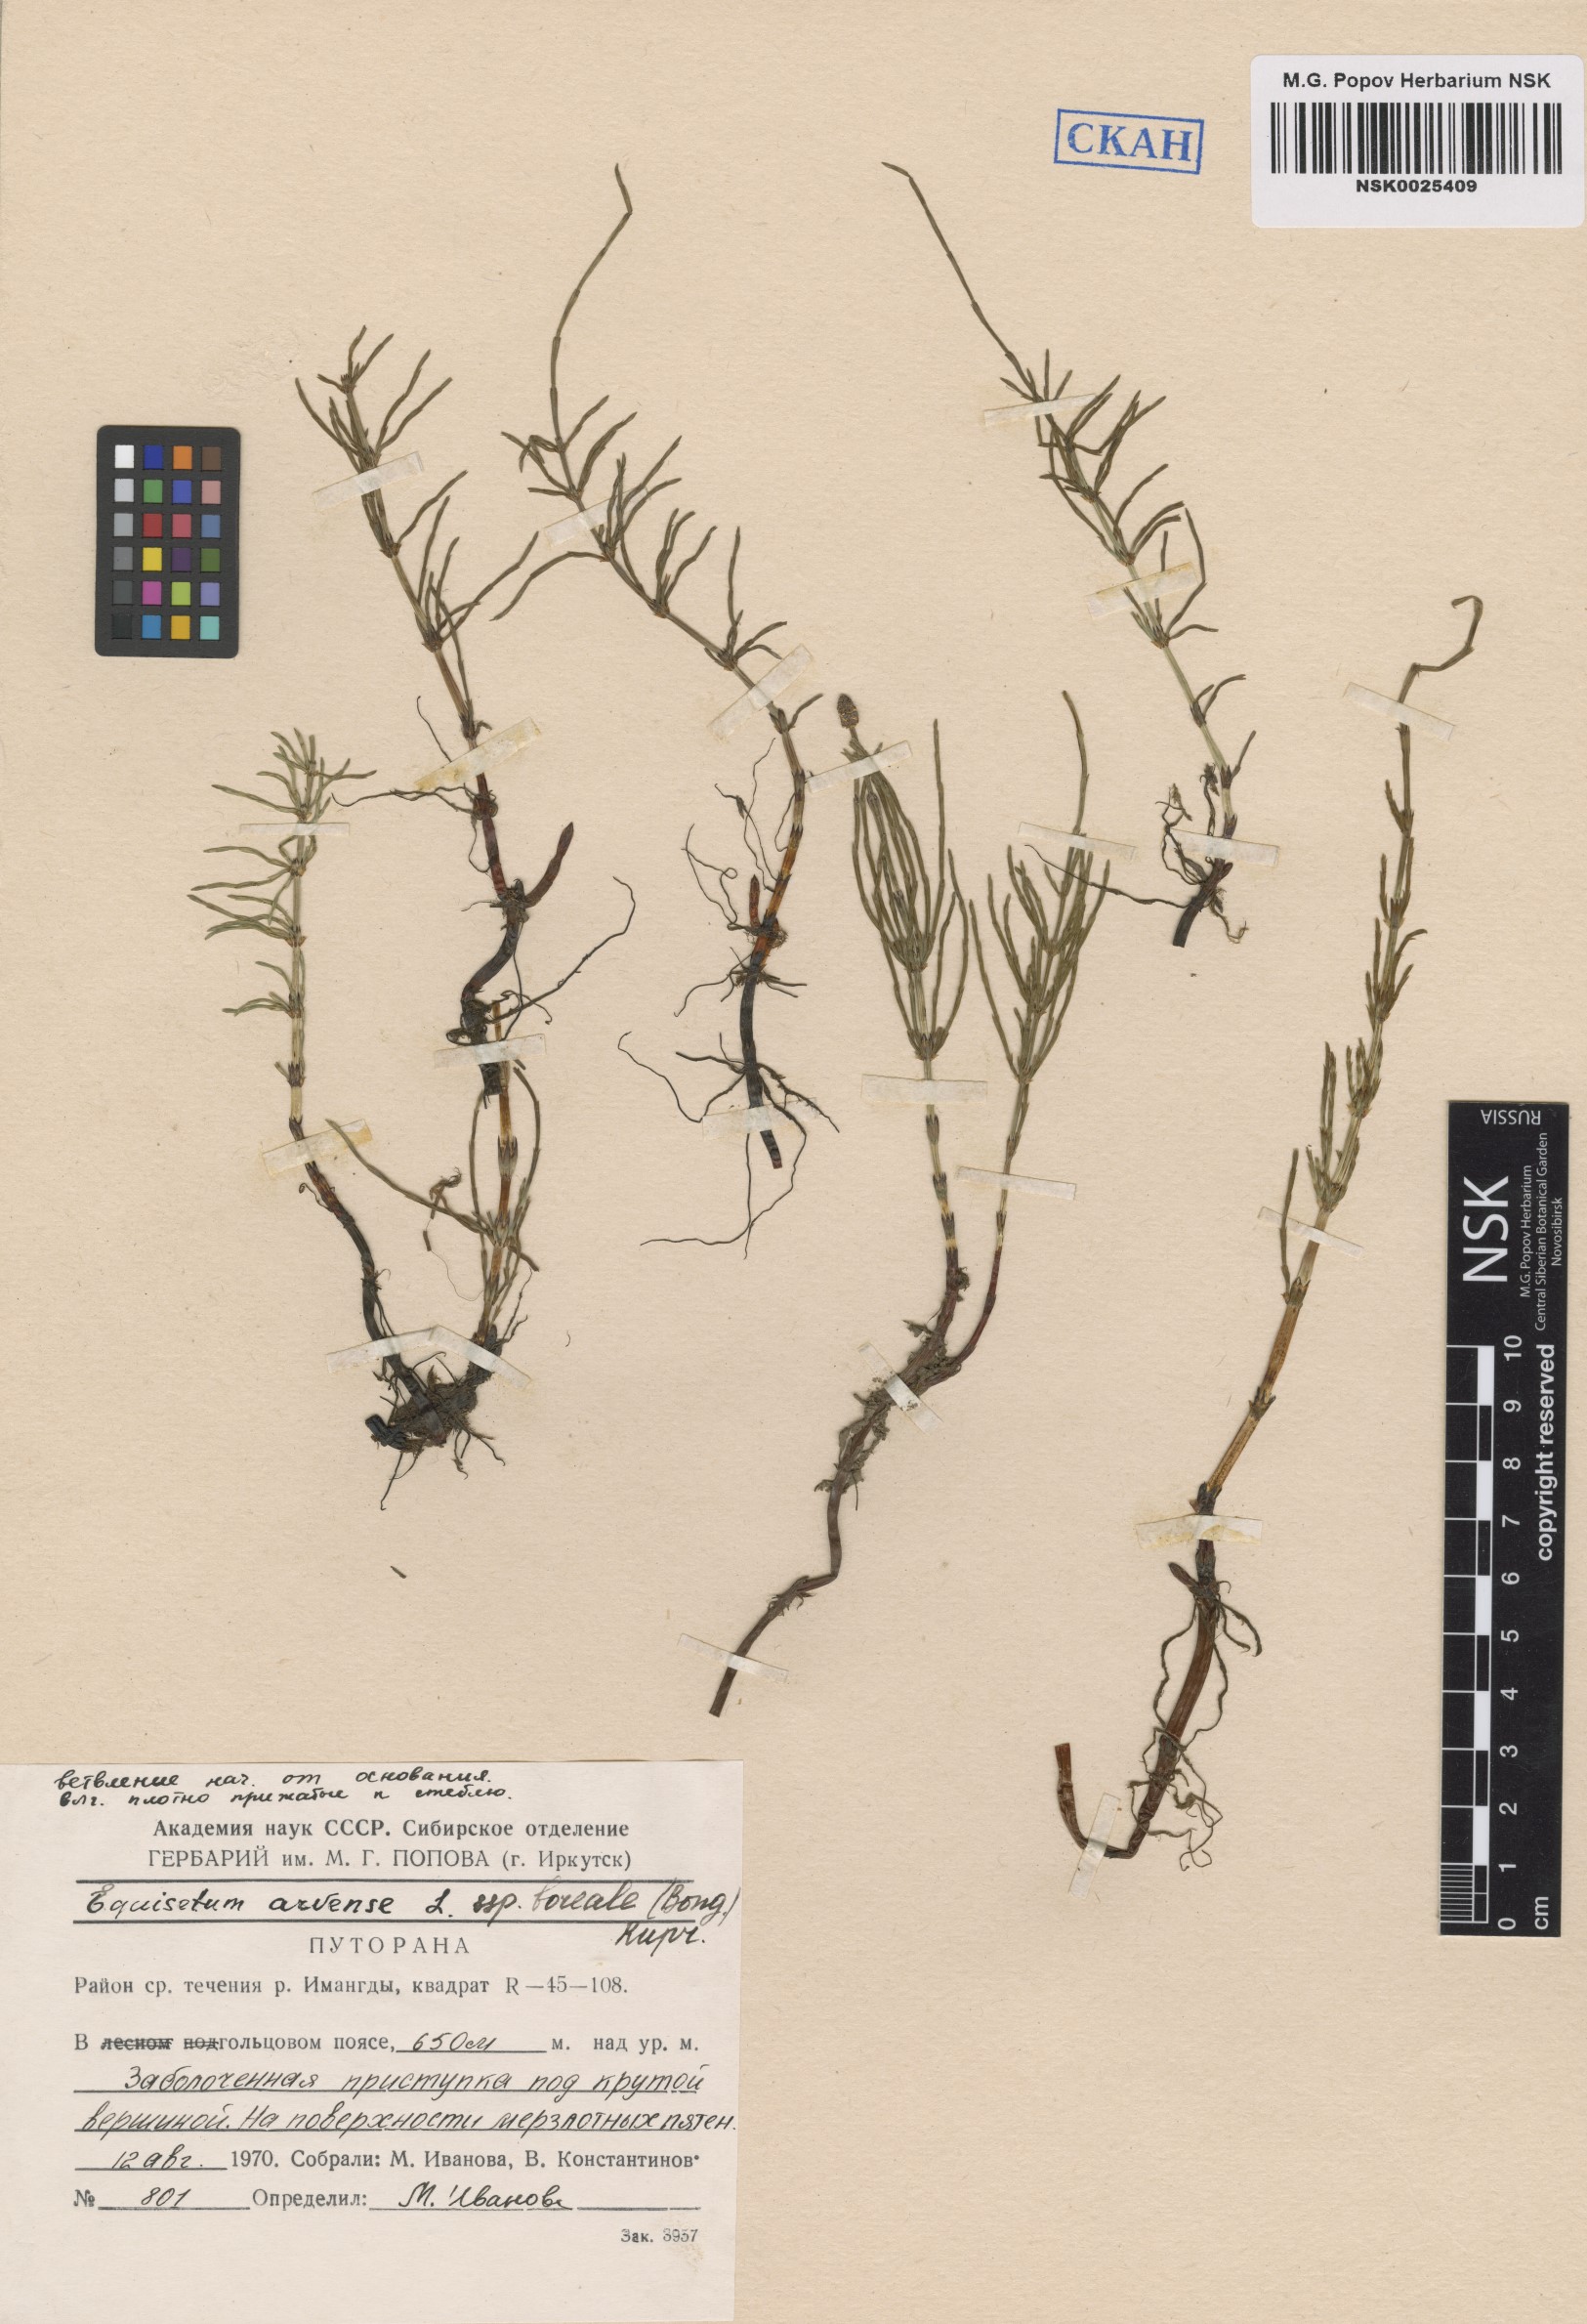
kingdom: Plantae
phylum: Tracheophyta
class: Polypodiopsida
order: Equisetales
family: Equisetaceae
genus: Equisetum
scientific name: Equisetum arvense
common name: Field horsetail
